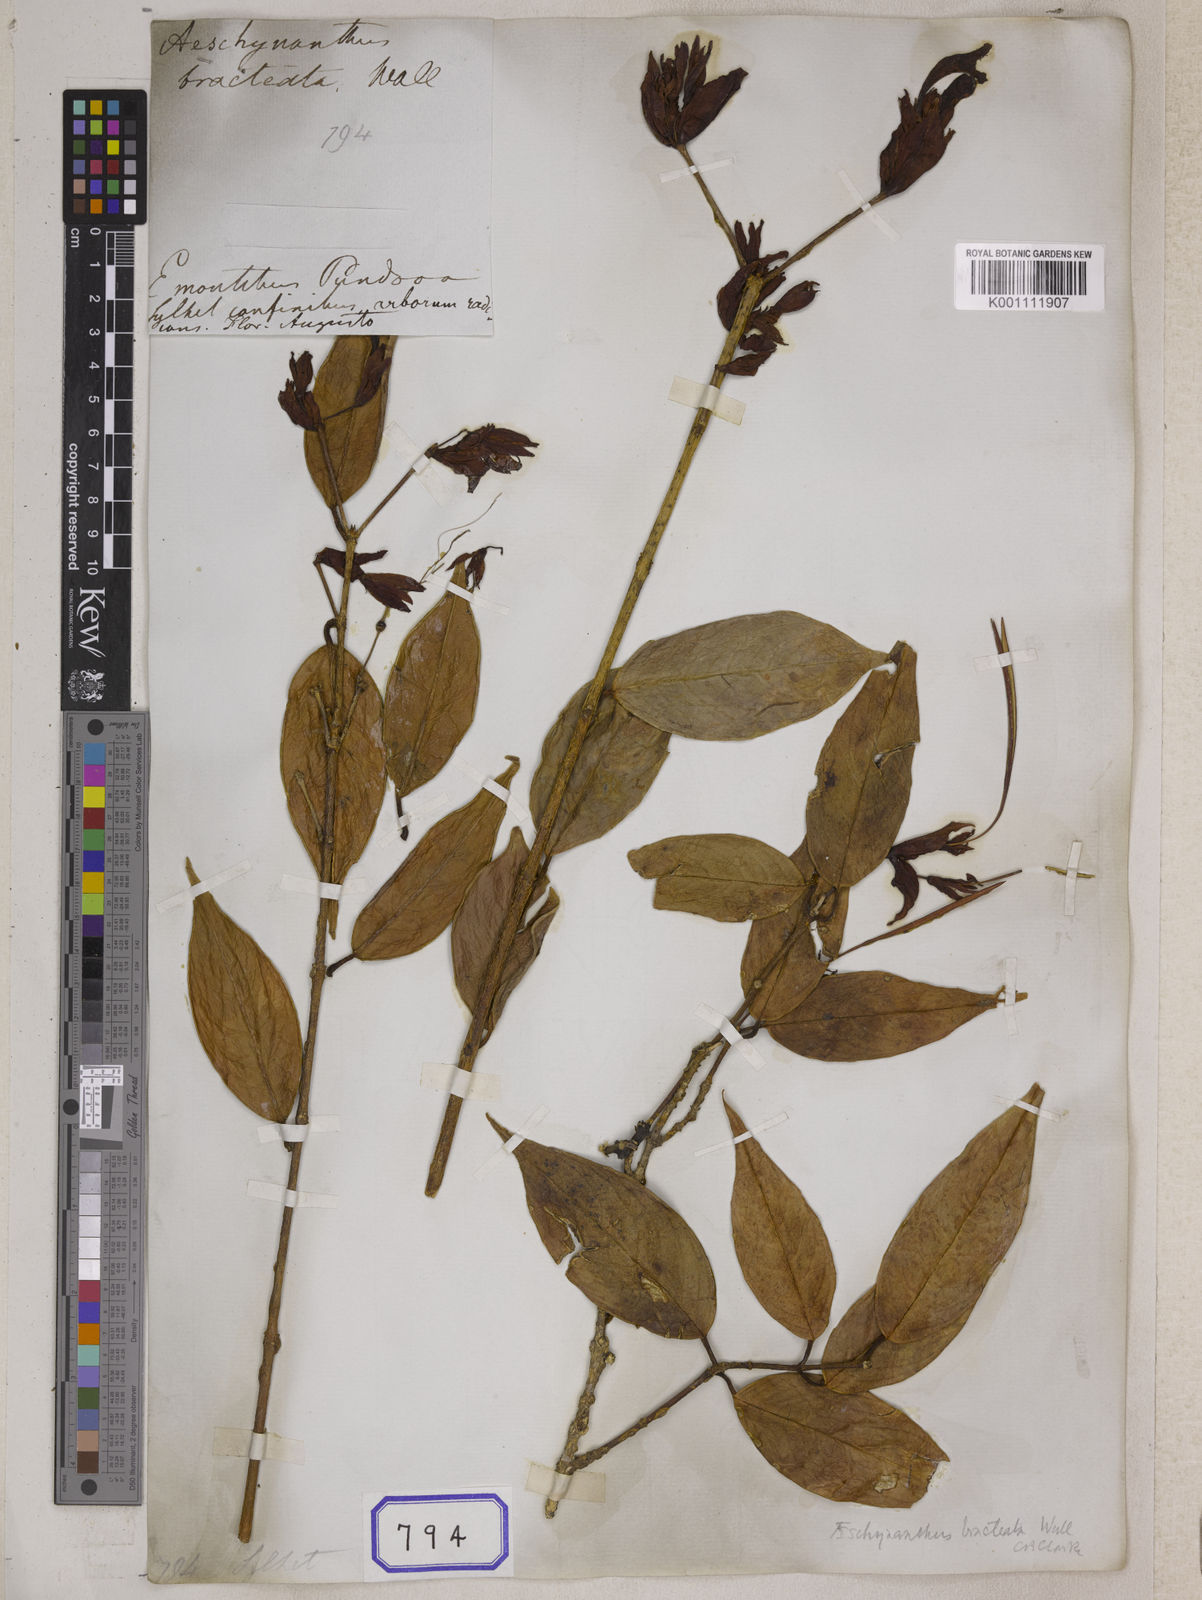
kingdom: Plantae
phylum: Tracheophyta
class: Magnoliopsida
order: Lamiales
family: Gesneriaceae
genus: Aeschynanthus
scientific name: Aeschynanthus
